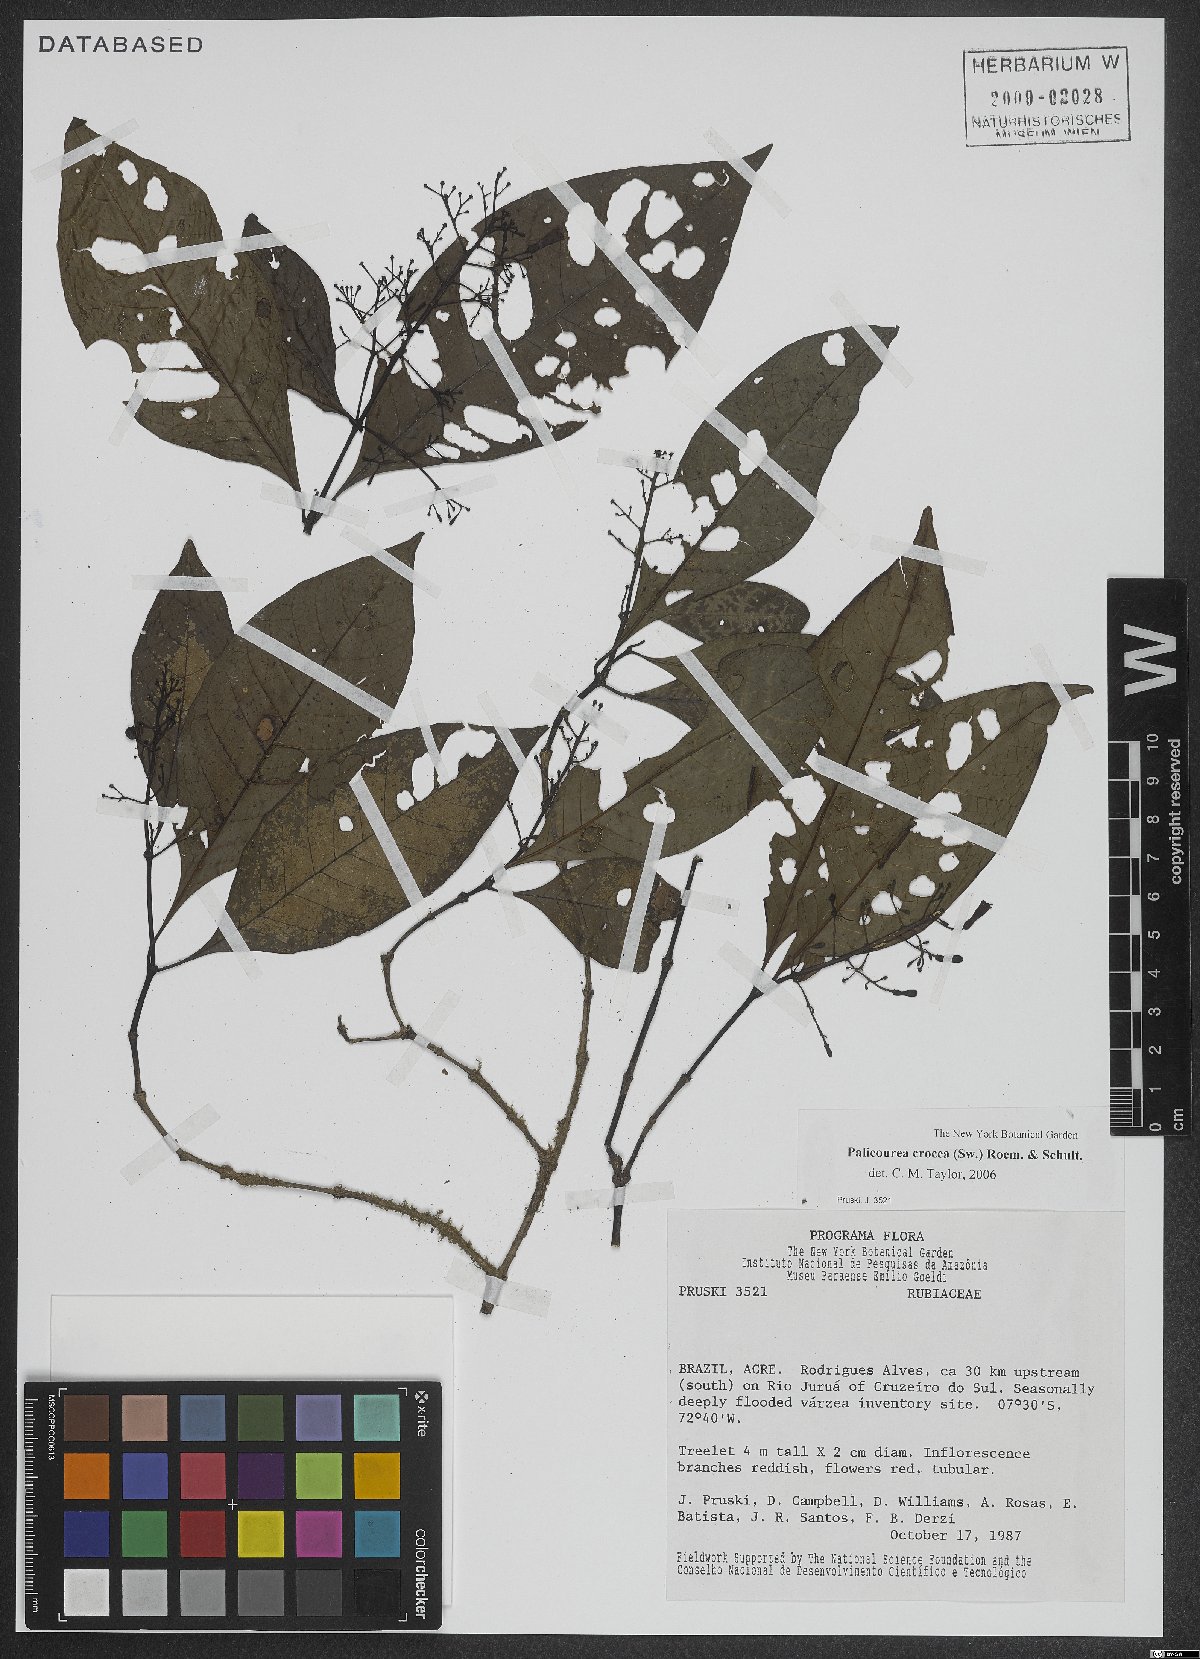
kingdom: Plantae
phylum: Tracheophyta
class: Magnoliopsida
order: Gentianales
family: Rubiaceae
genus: Palicourea
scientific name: Palicourea crocea
